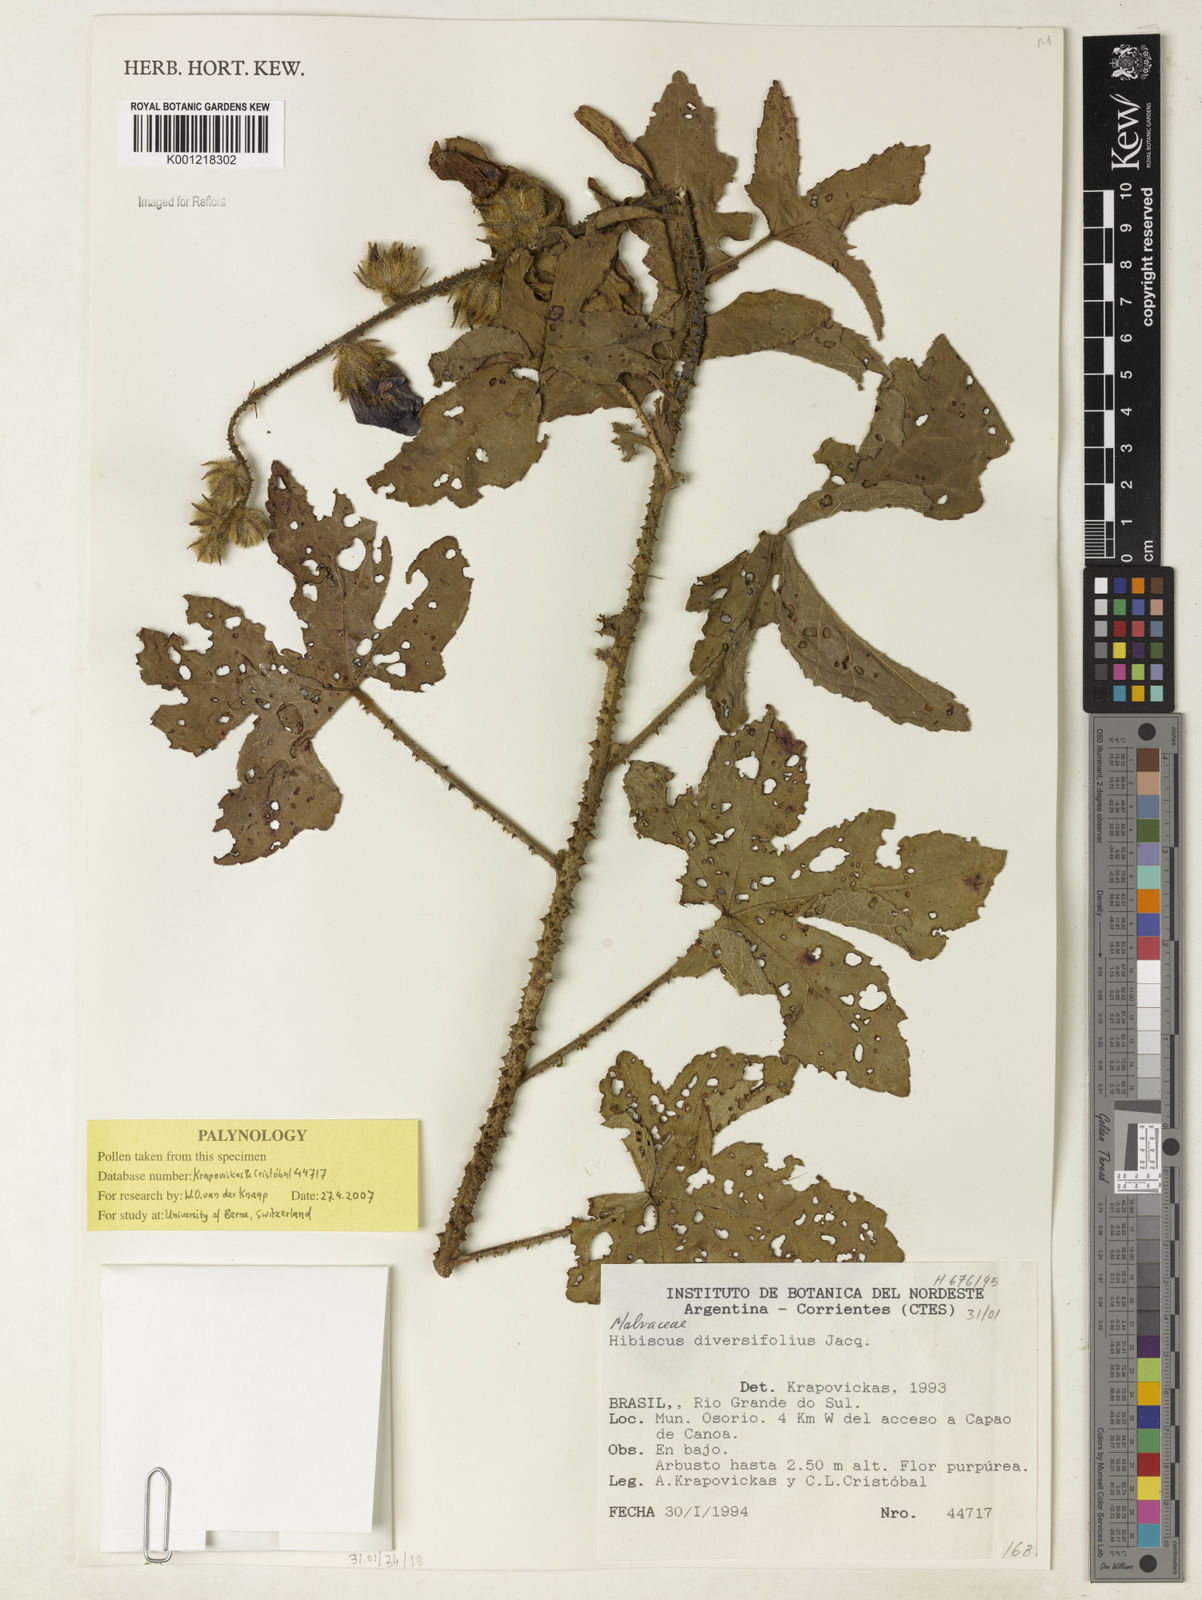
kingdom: Plantae
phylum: Tracheophyta
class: Magnoliopsida
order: Malvales
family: Malvaceae
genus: Hibiscus
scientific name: Hibiscus diversifolius
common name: Cape hibiscus
